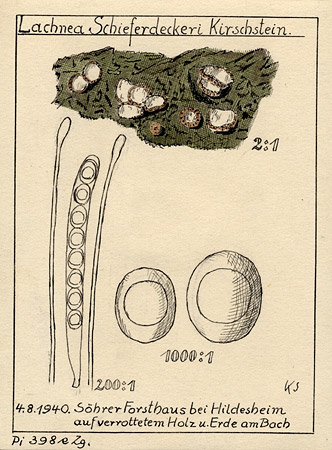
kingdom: Fungi
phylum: Ascomycota
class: Pezizomycetes
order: Pezizales
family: Pyronemataceae
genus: Lachnea
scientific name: Lachnea schieferdeckeri
